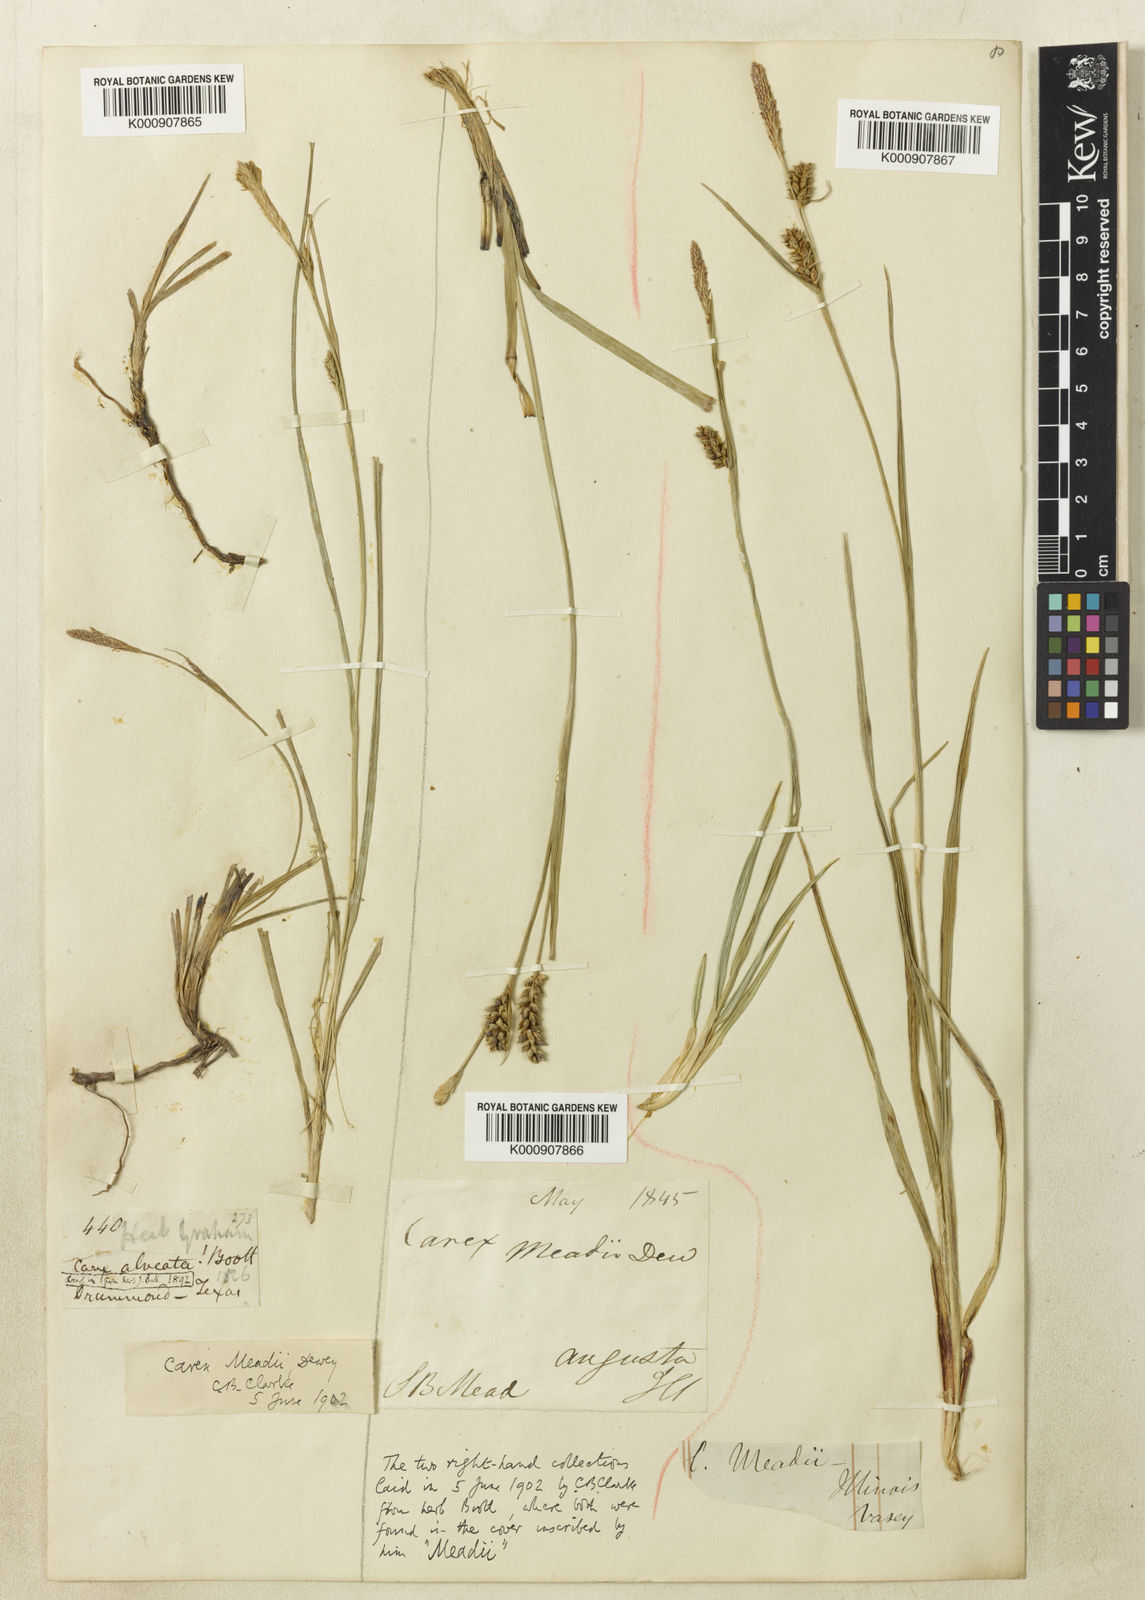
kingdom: Plantae
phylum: Tracheophyta
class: Liliopsida
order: Poales
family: Cyperaceae
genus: Carex
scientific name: Carex meadii
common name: Mead's sedge
